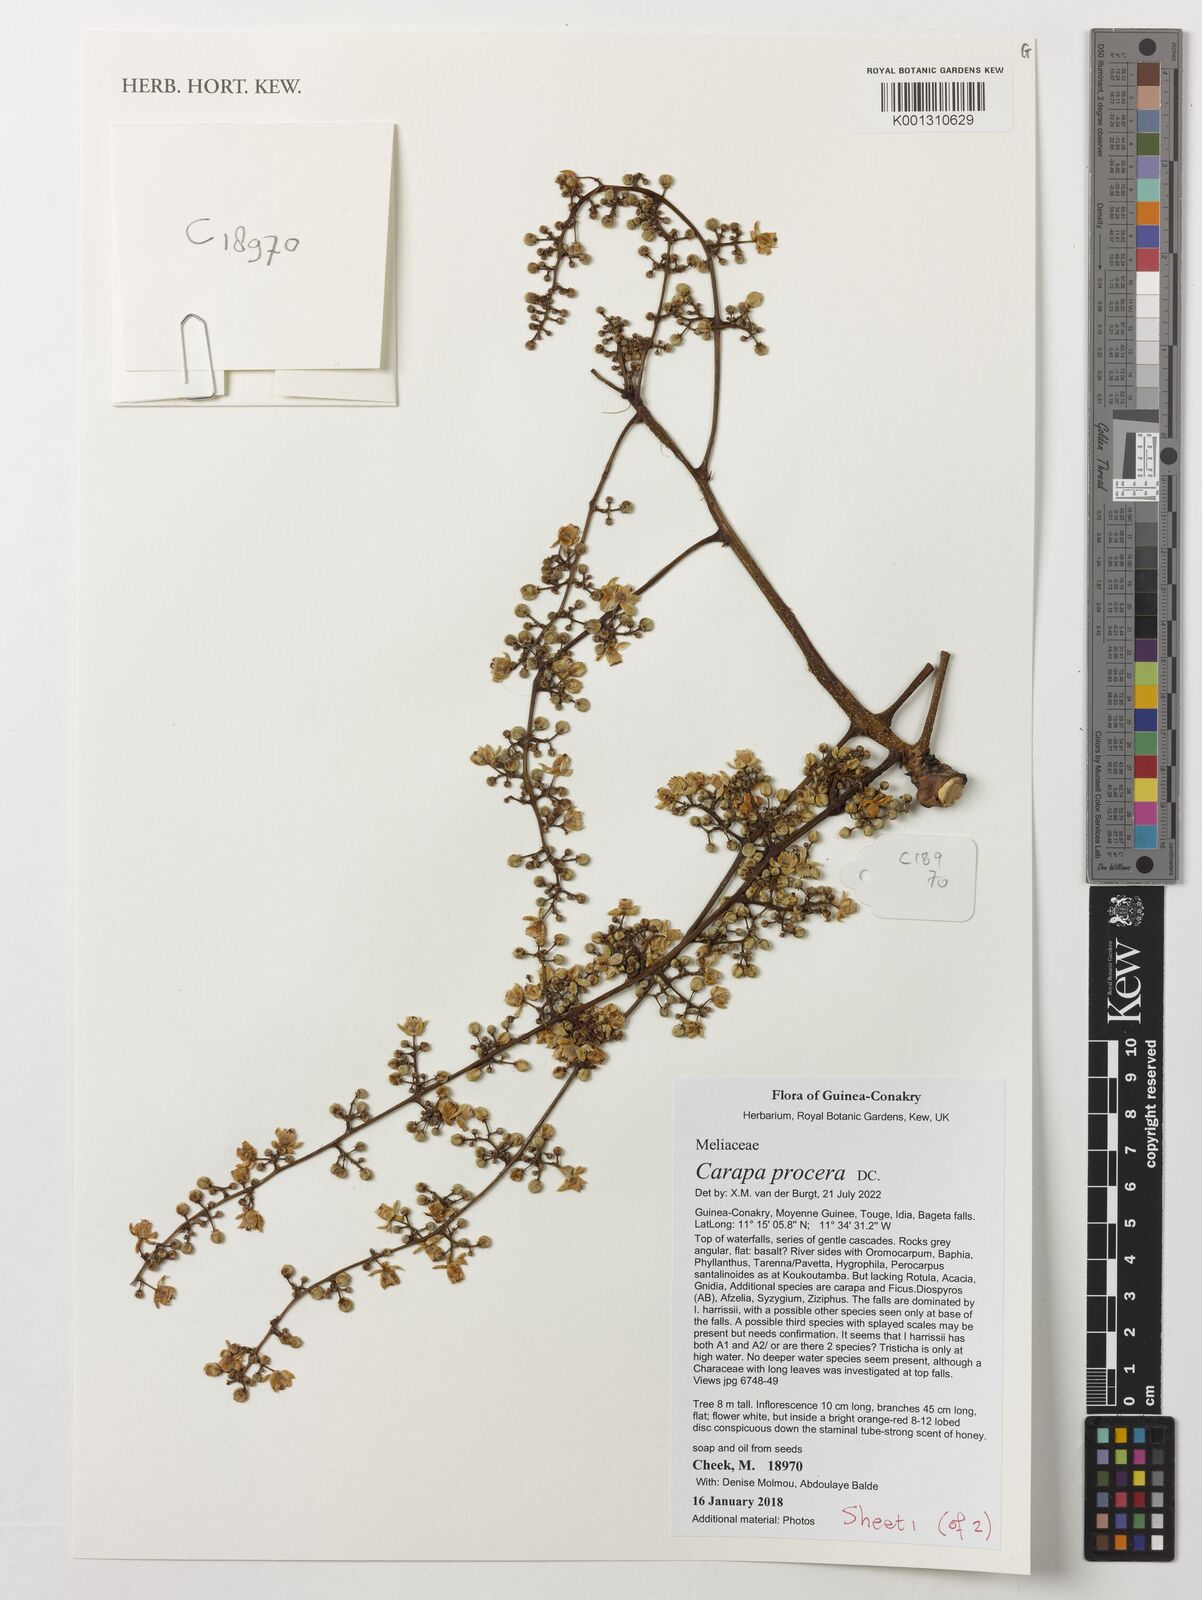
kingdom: Plantae
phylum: Tracheophyta
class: Magnoliopsida
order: Sapindales
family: Meliaceae
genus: Carapa
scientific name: Carapa procera
